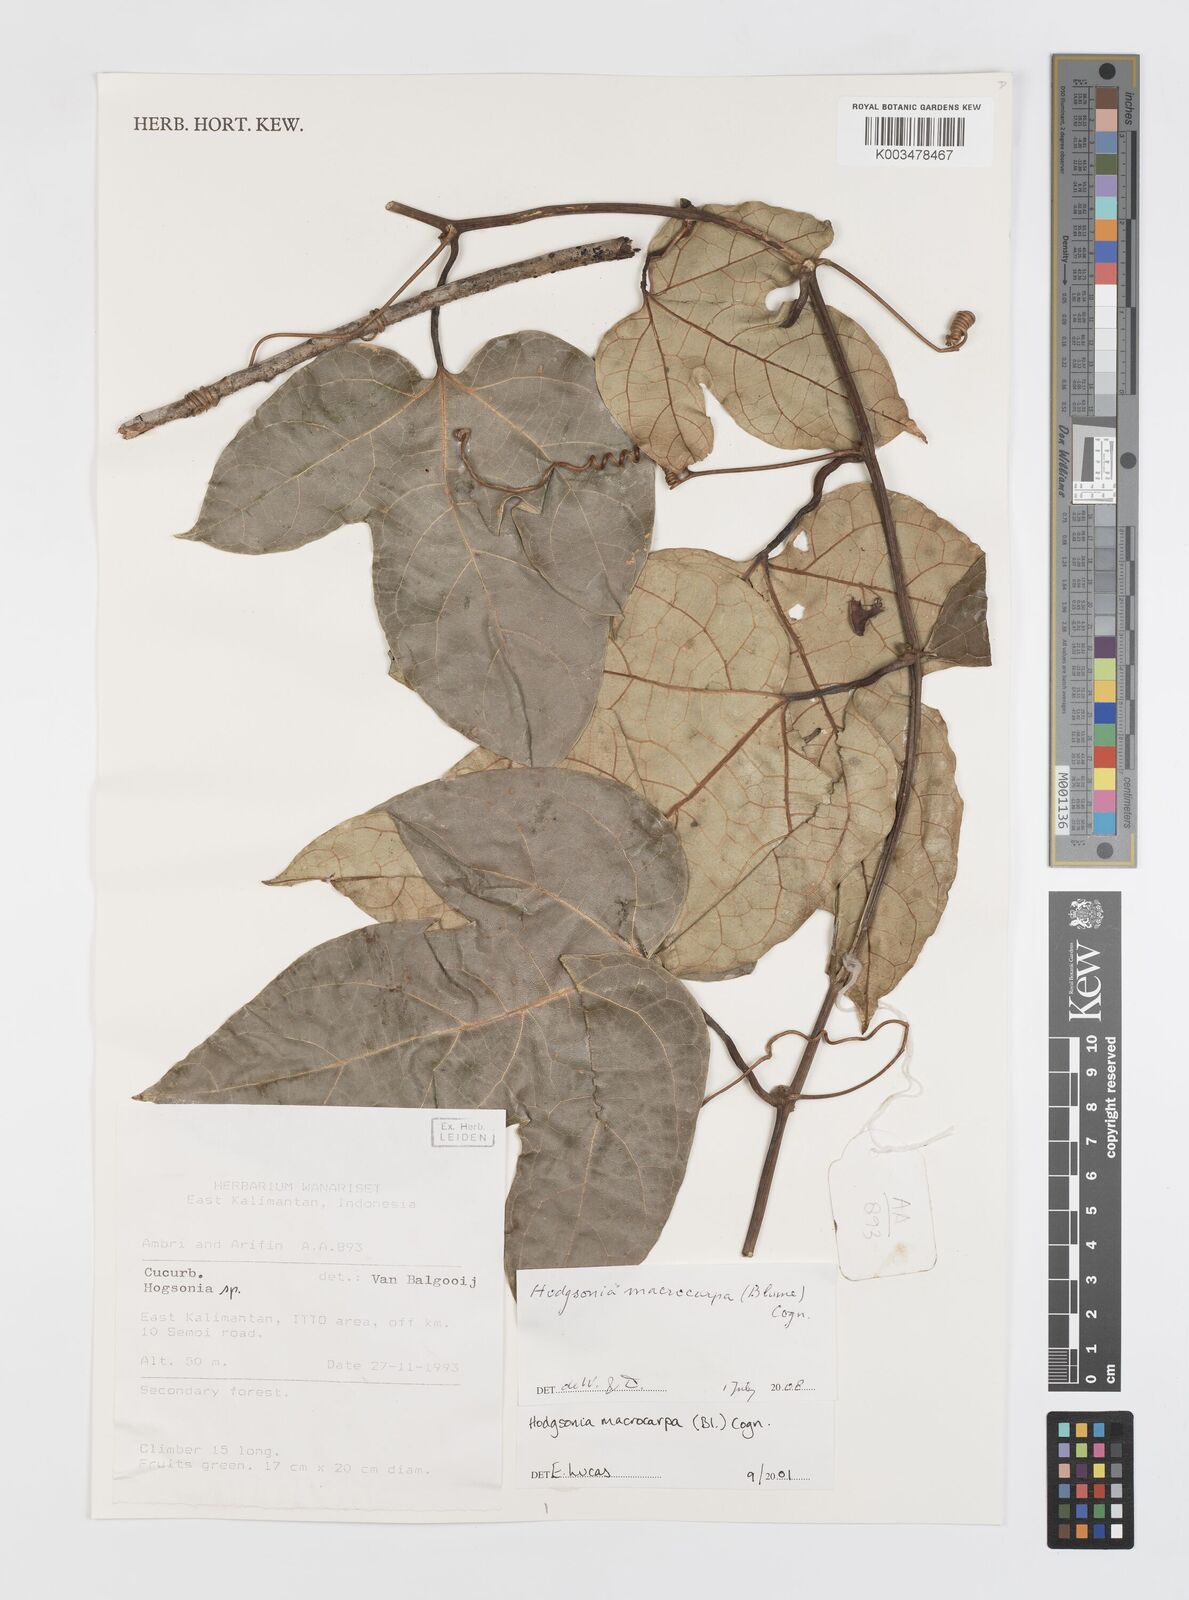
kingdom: Plantae
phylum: Tracheophyta
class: Magnoliopsida
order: Cucurbitales
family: Cucurbitaceae
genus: Hodgsonia
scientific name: Hodgsonia macrocarpa
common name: Chinese lardfruit
